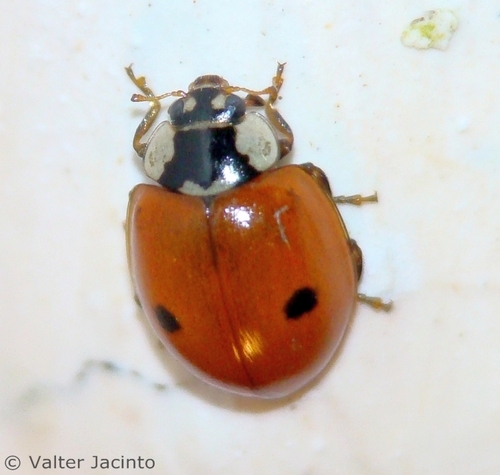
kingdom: Animalia
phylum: Arthropoda
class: Insecta
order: Coleoptera
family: Coccinellidae
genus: Adalia
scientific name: Adalia bipunctata
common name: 2-spot ladybird
